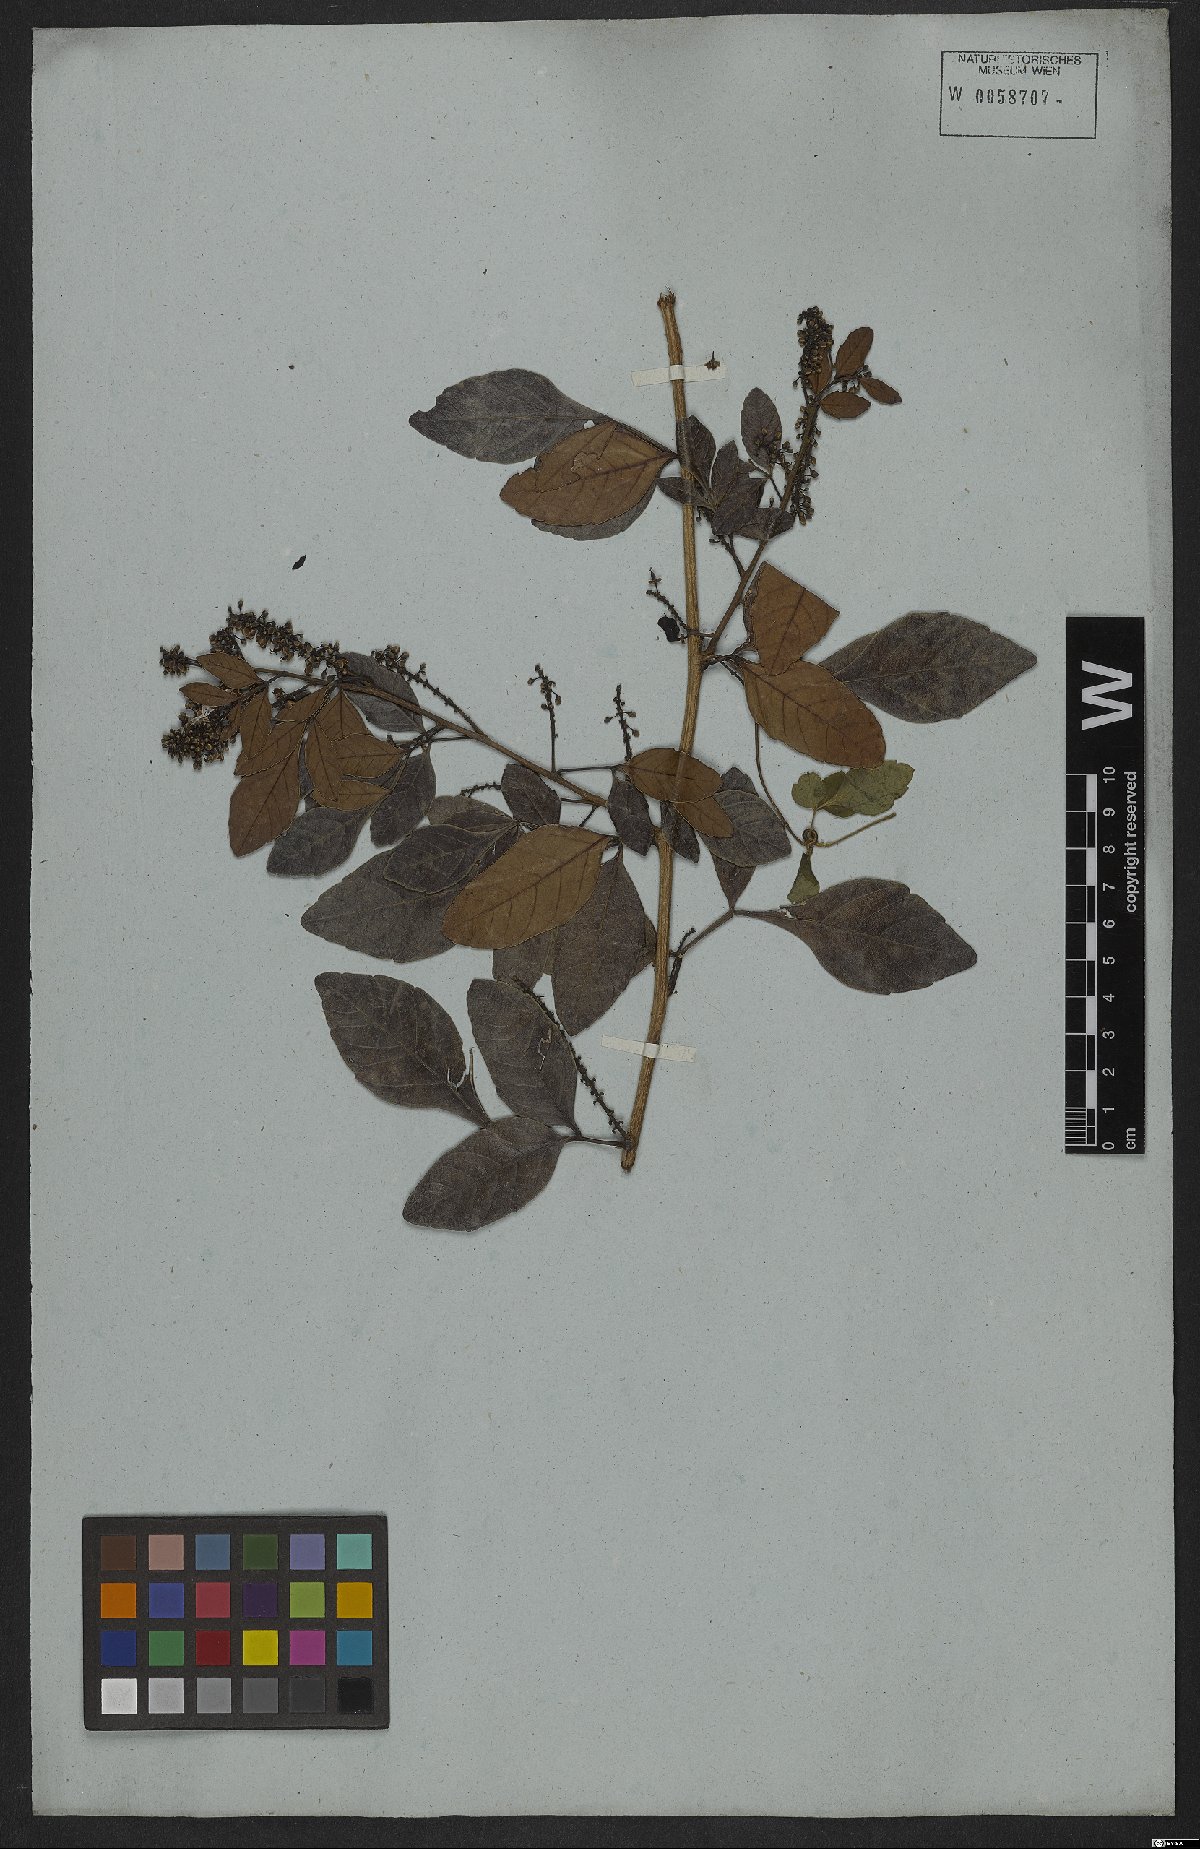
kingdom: Plantae
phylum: Tracheophyta
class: Magnoliopsida
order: Sapindales
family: Sapindaceae
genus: Paullinia
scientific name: Paullinia weinmanniifolia
